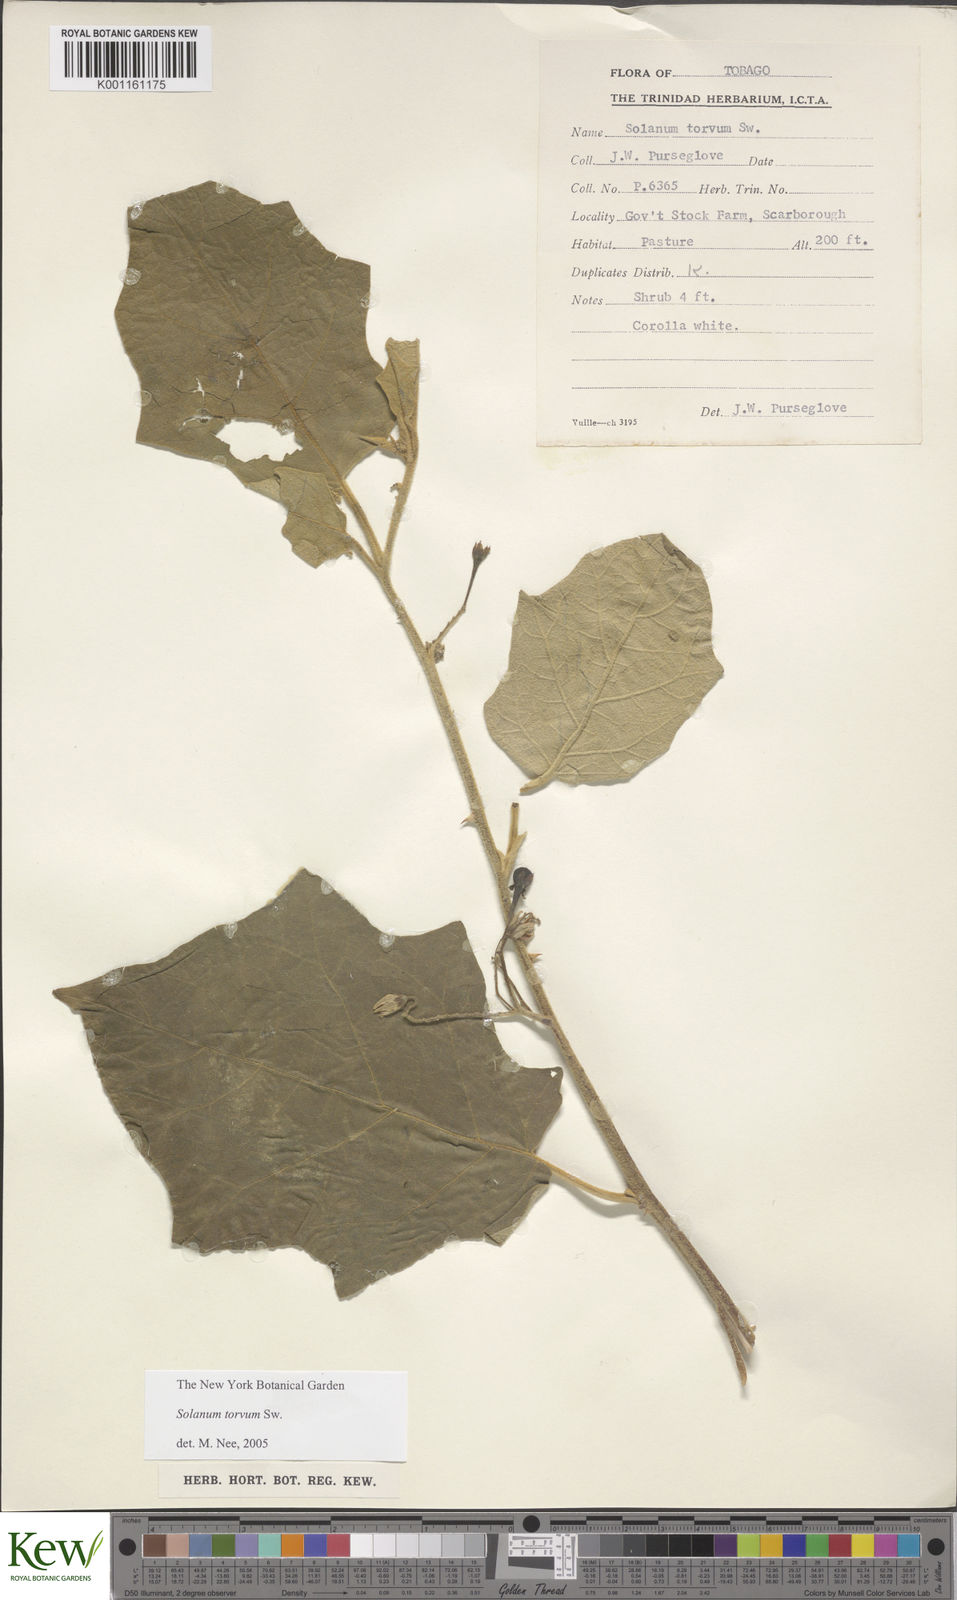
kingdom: Plantae
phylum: Tracheophyta
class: Magnoliopsida
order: Solanales
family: Solanaceae
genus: Solanum
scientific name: Solanum torvum
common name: Turkey berry
